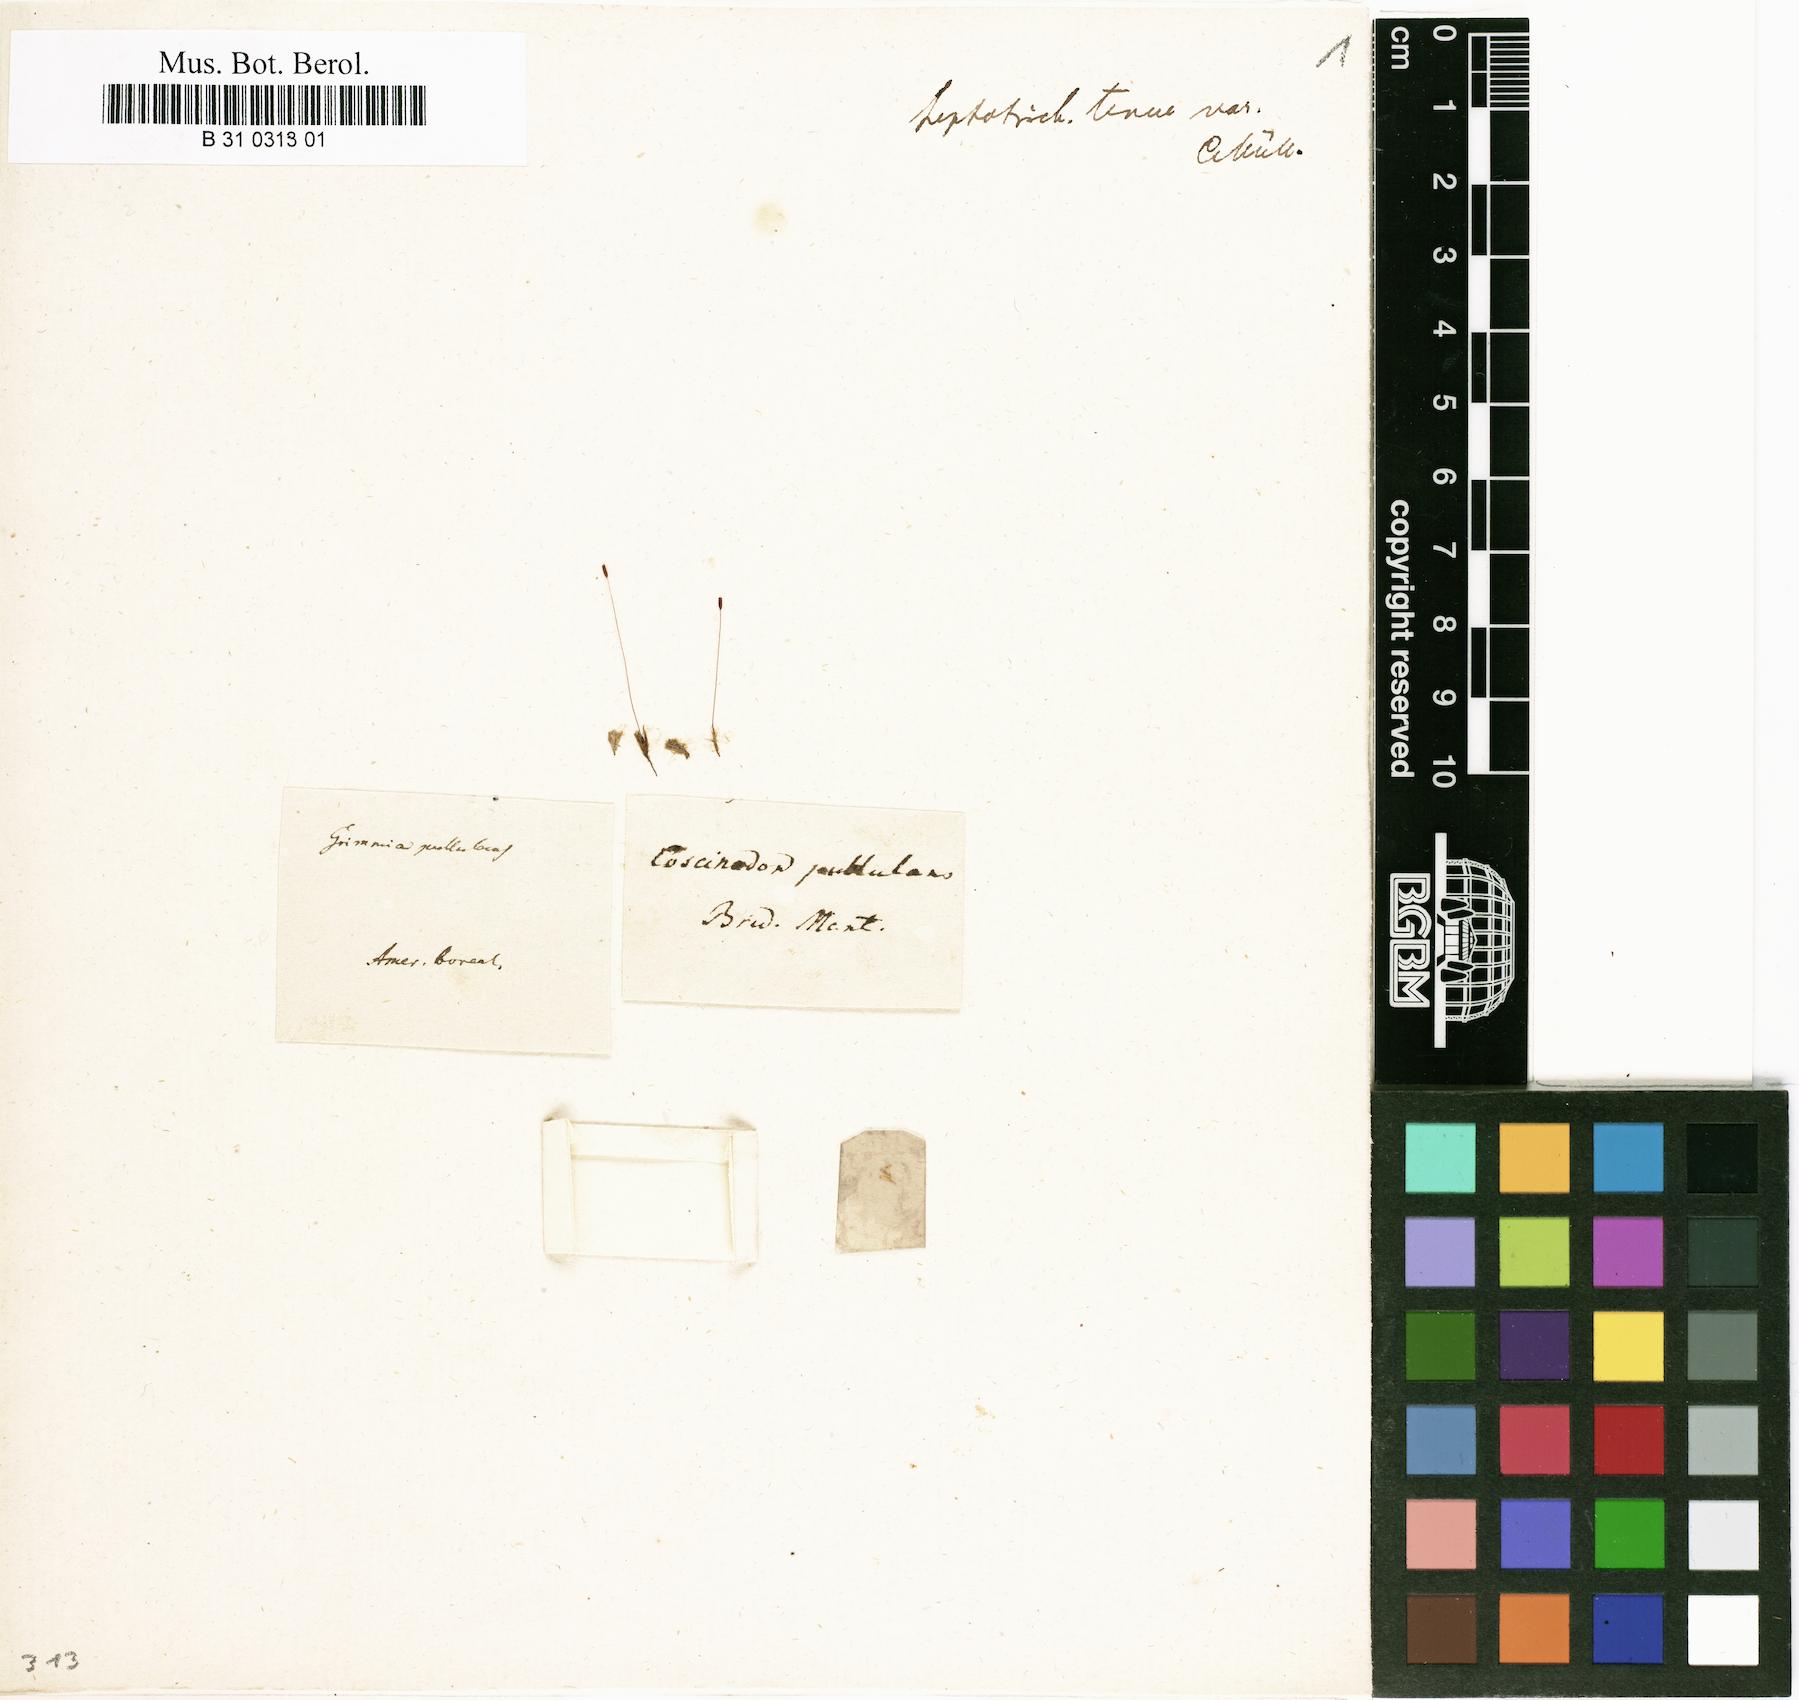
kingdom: Plantae
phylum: Bryophyta
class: Bryopsida
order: Dicranales
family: Ditrichaceae
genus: Ditrichum
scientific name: Ditrichum pusillum
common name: Brown cow-hair moss
